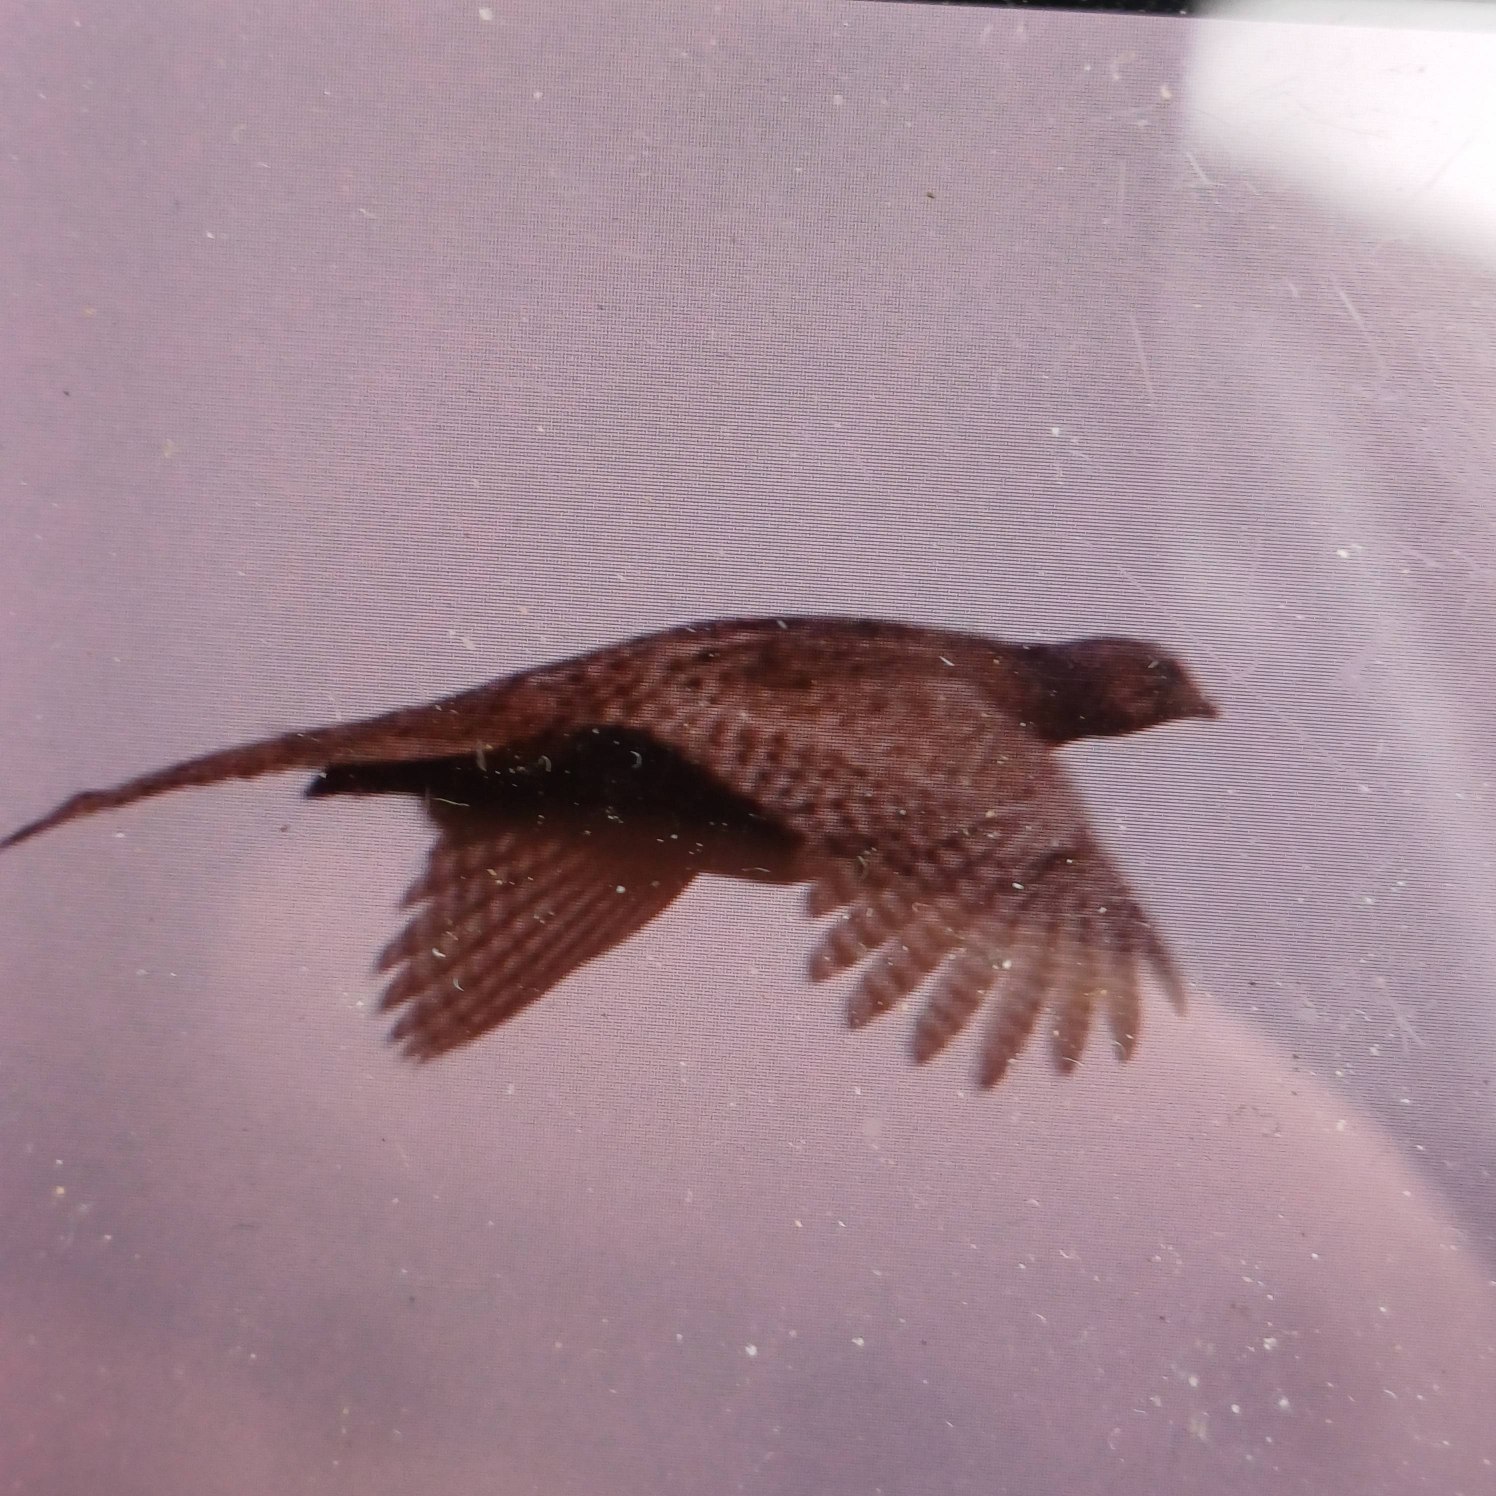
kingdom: Animalia
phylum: Chordata
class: Aves
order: Galliformes
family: Phasianidae
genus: Phasianus
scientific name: Phasianus colchicus
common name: Fasan
